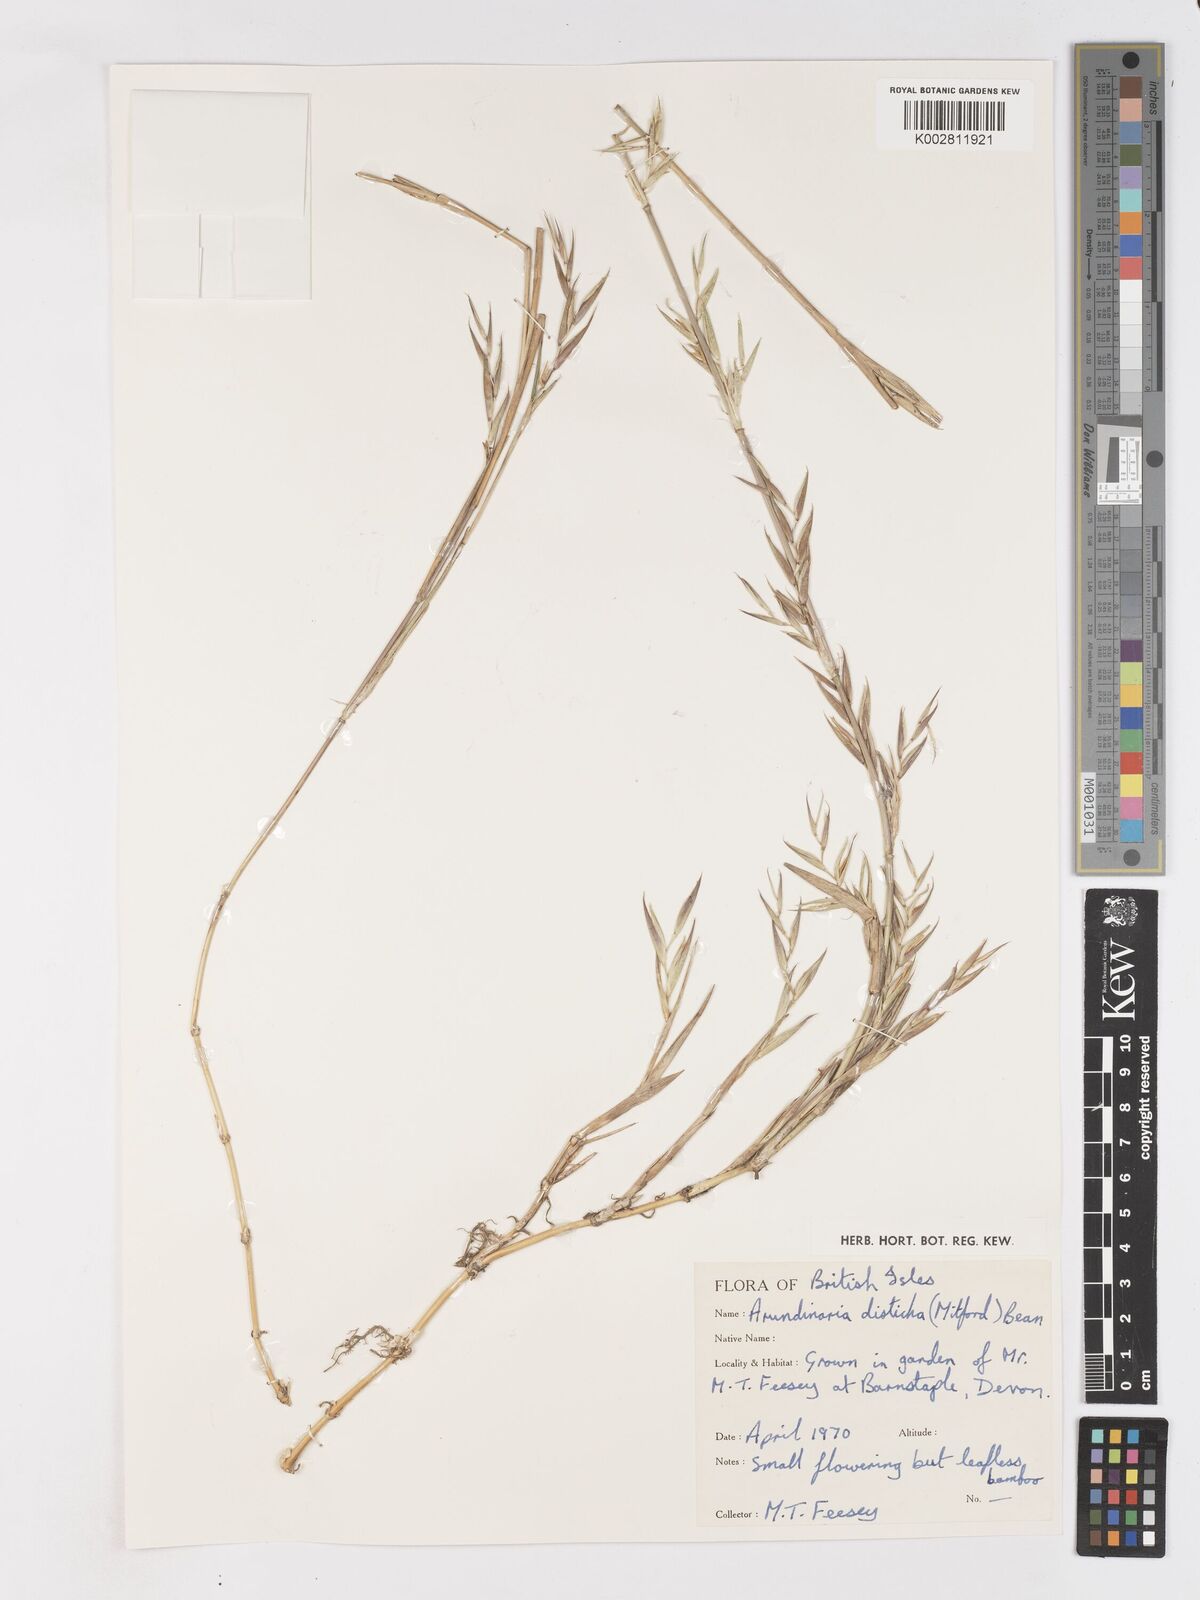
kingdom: Plantae
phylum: Tracheophyta
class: Liliopsida
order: Poales
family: Poaceae
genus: Pleioblastus
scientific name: Pleioblastus distichus
